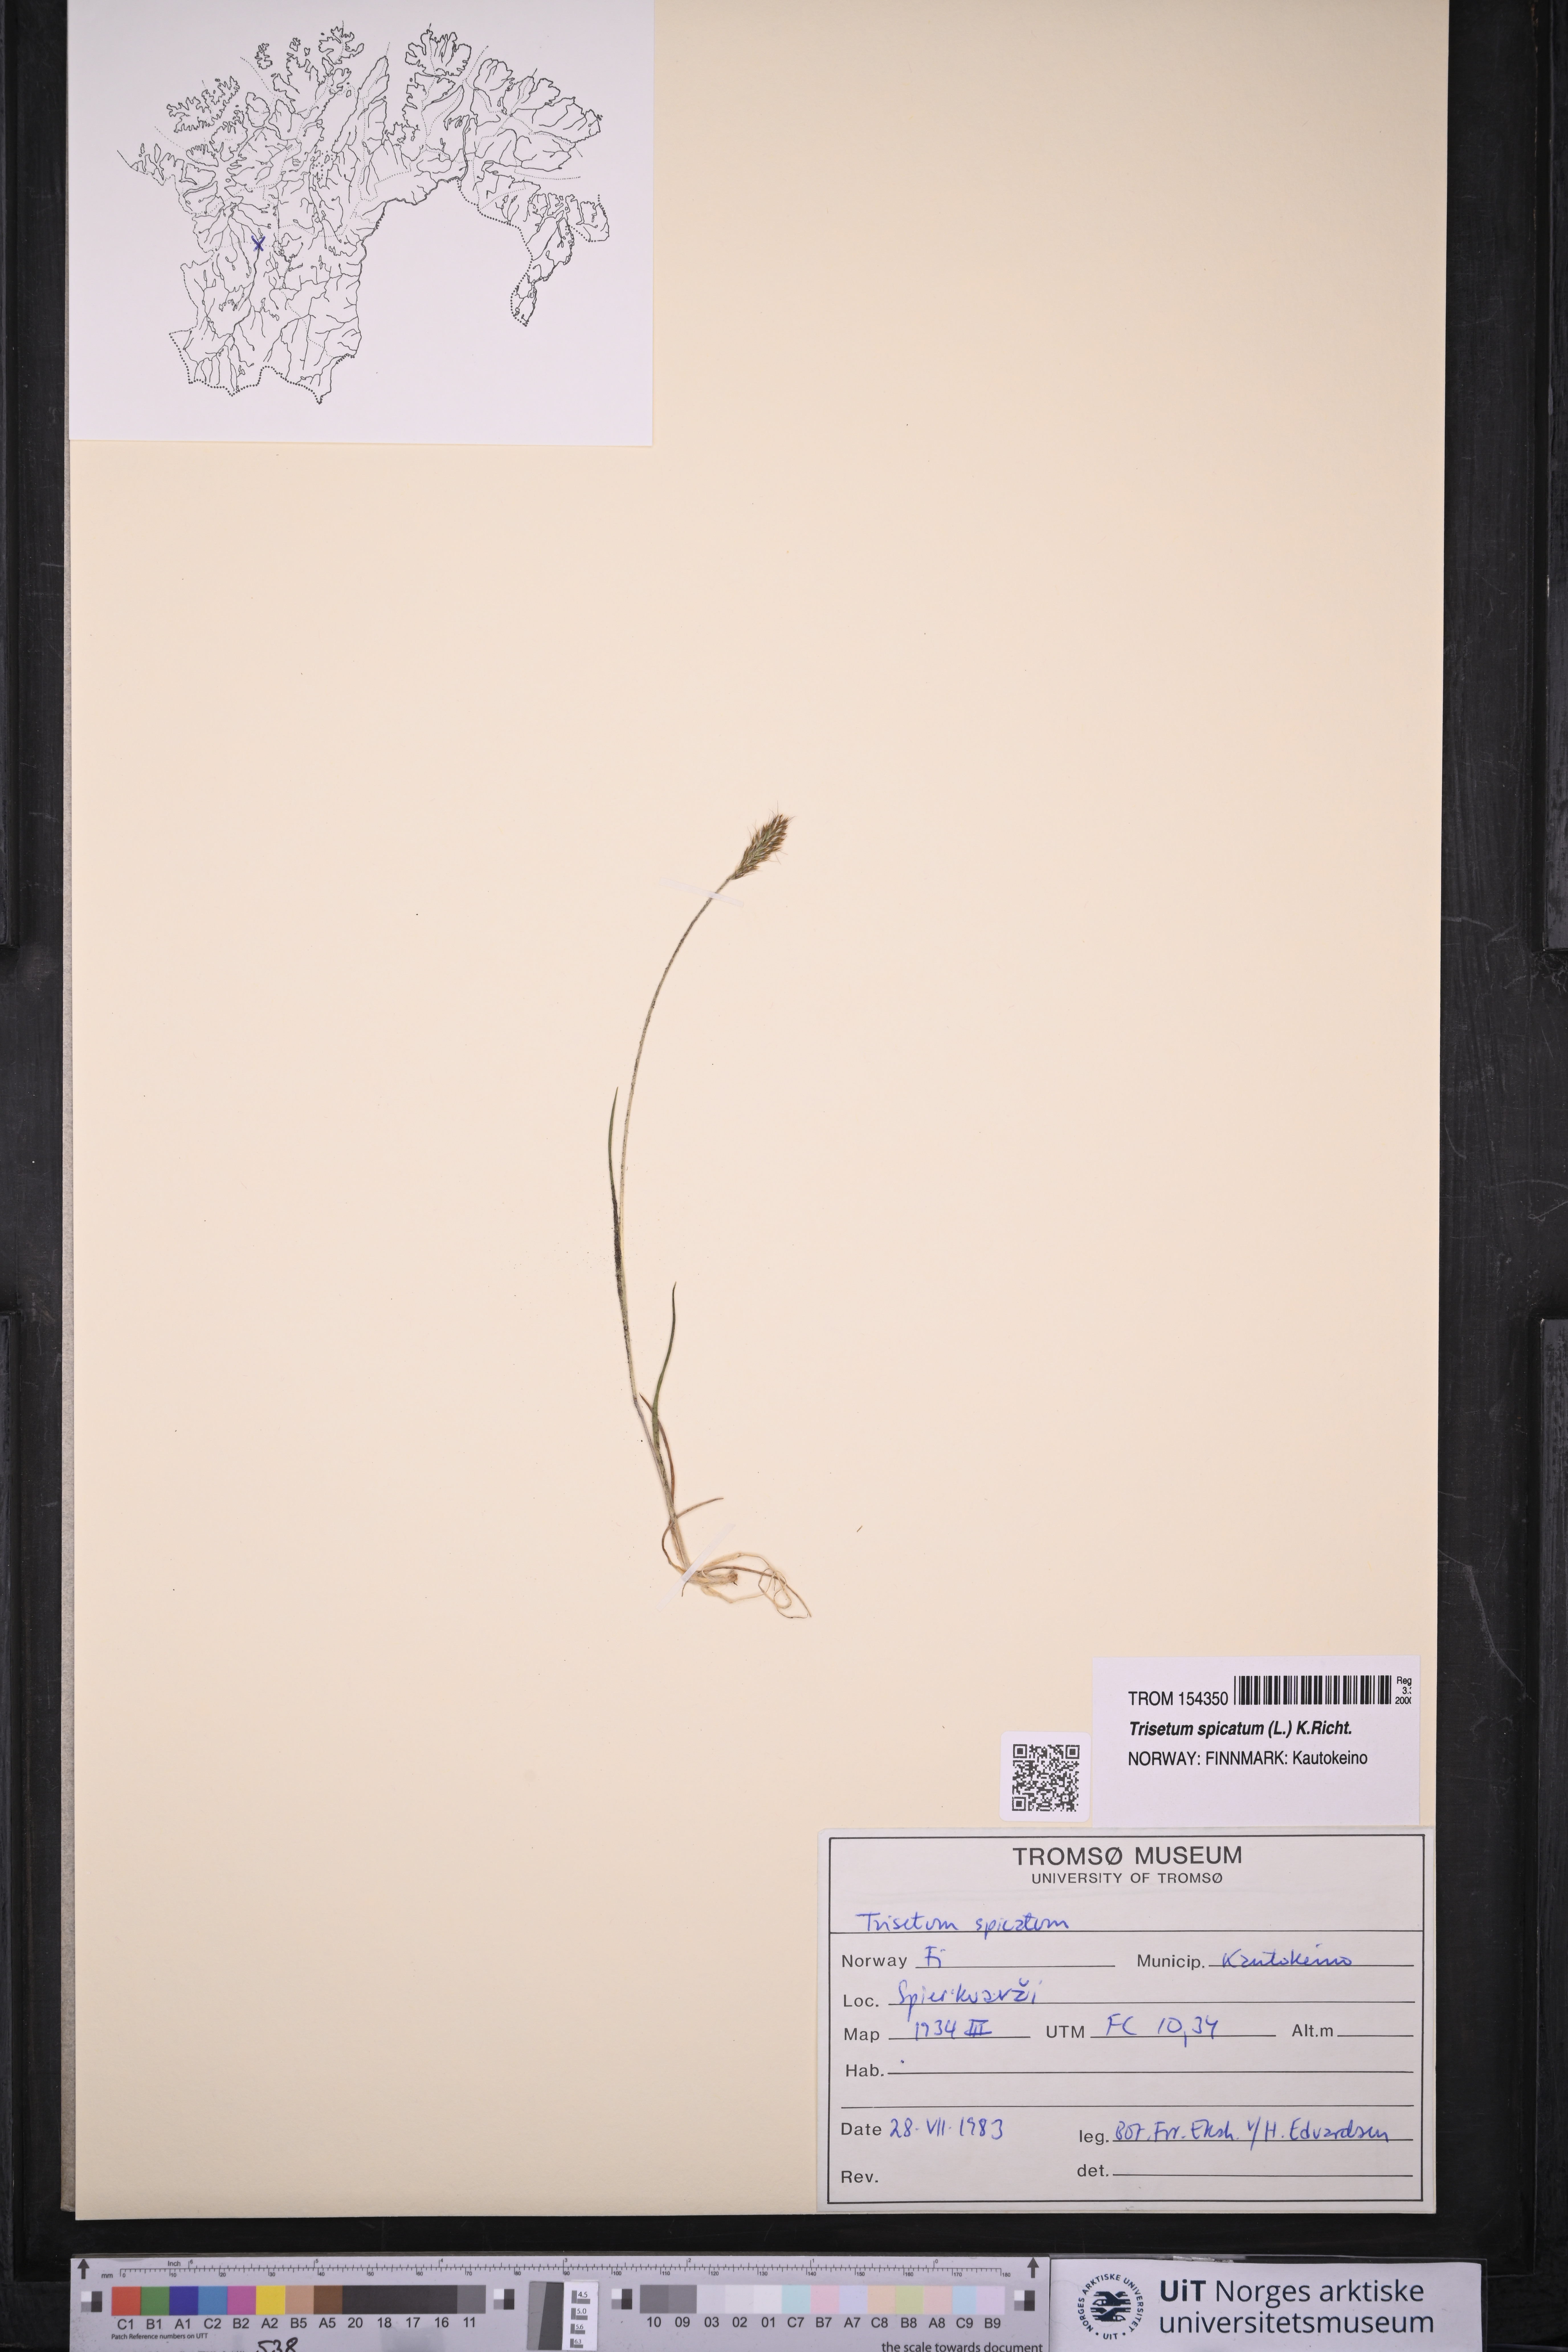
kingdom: Plantae
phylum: Tracheophyta
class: Liliopsida
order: Poales
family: Poaceae
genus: Koeleria
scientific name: Koeleria spicata
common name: Mountain trisetum
